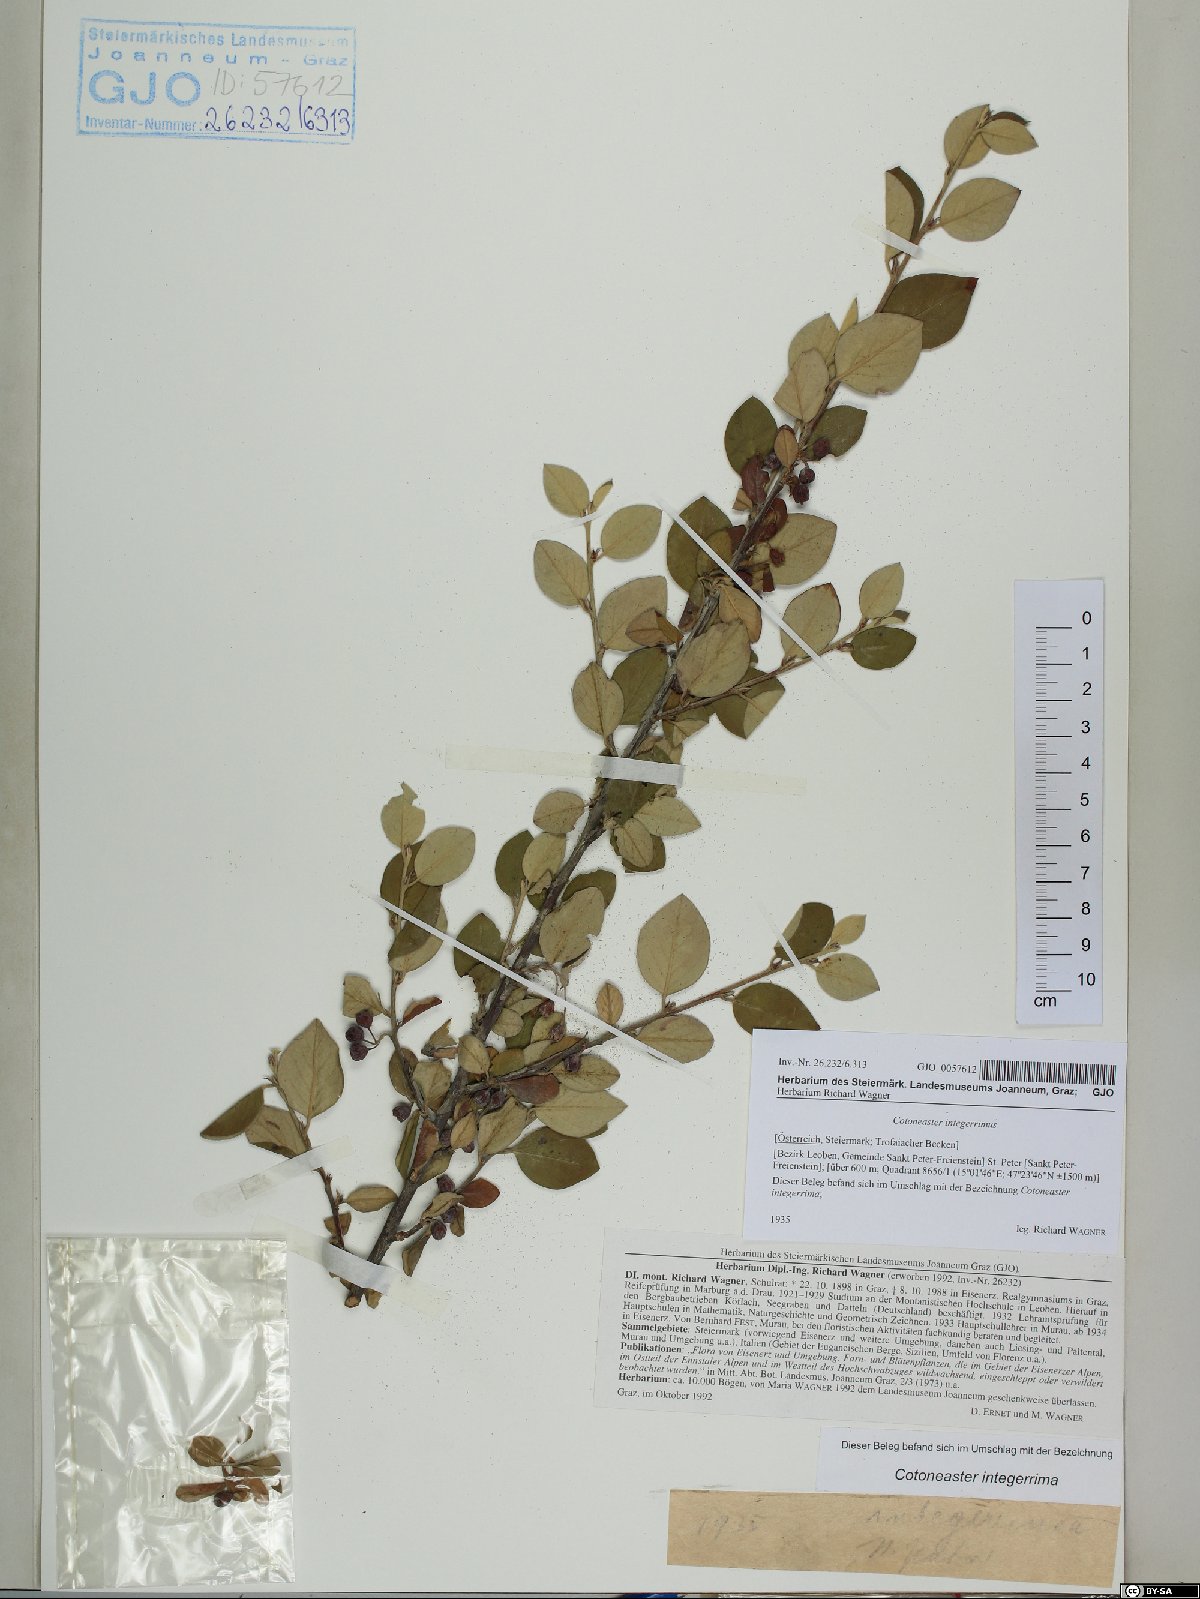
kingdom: Plantae
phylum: Tracheophyta
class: Magnoliopsida
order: Rosales
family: Rosaceae
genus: Cotoneaster
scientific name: Cotoneaster integerrimus
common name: Wild cotoneaster
